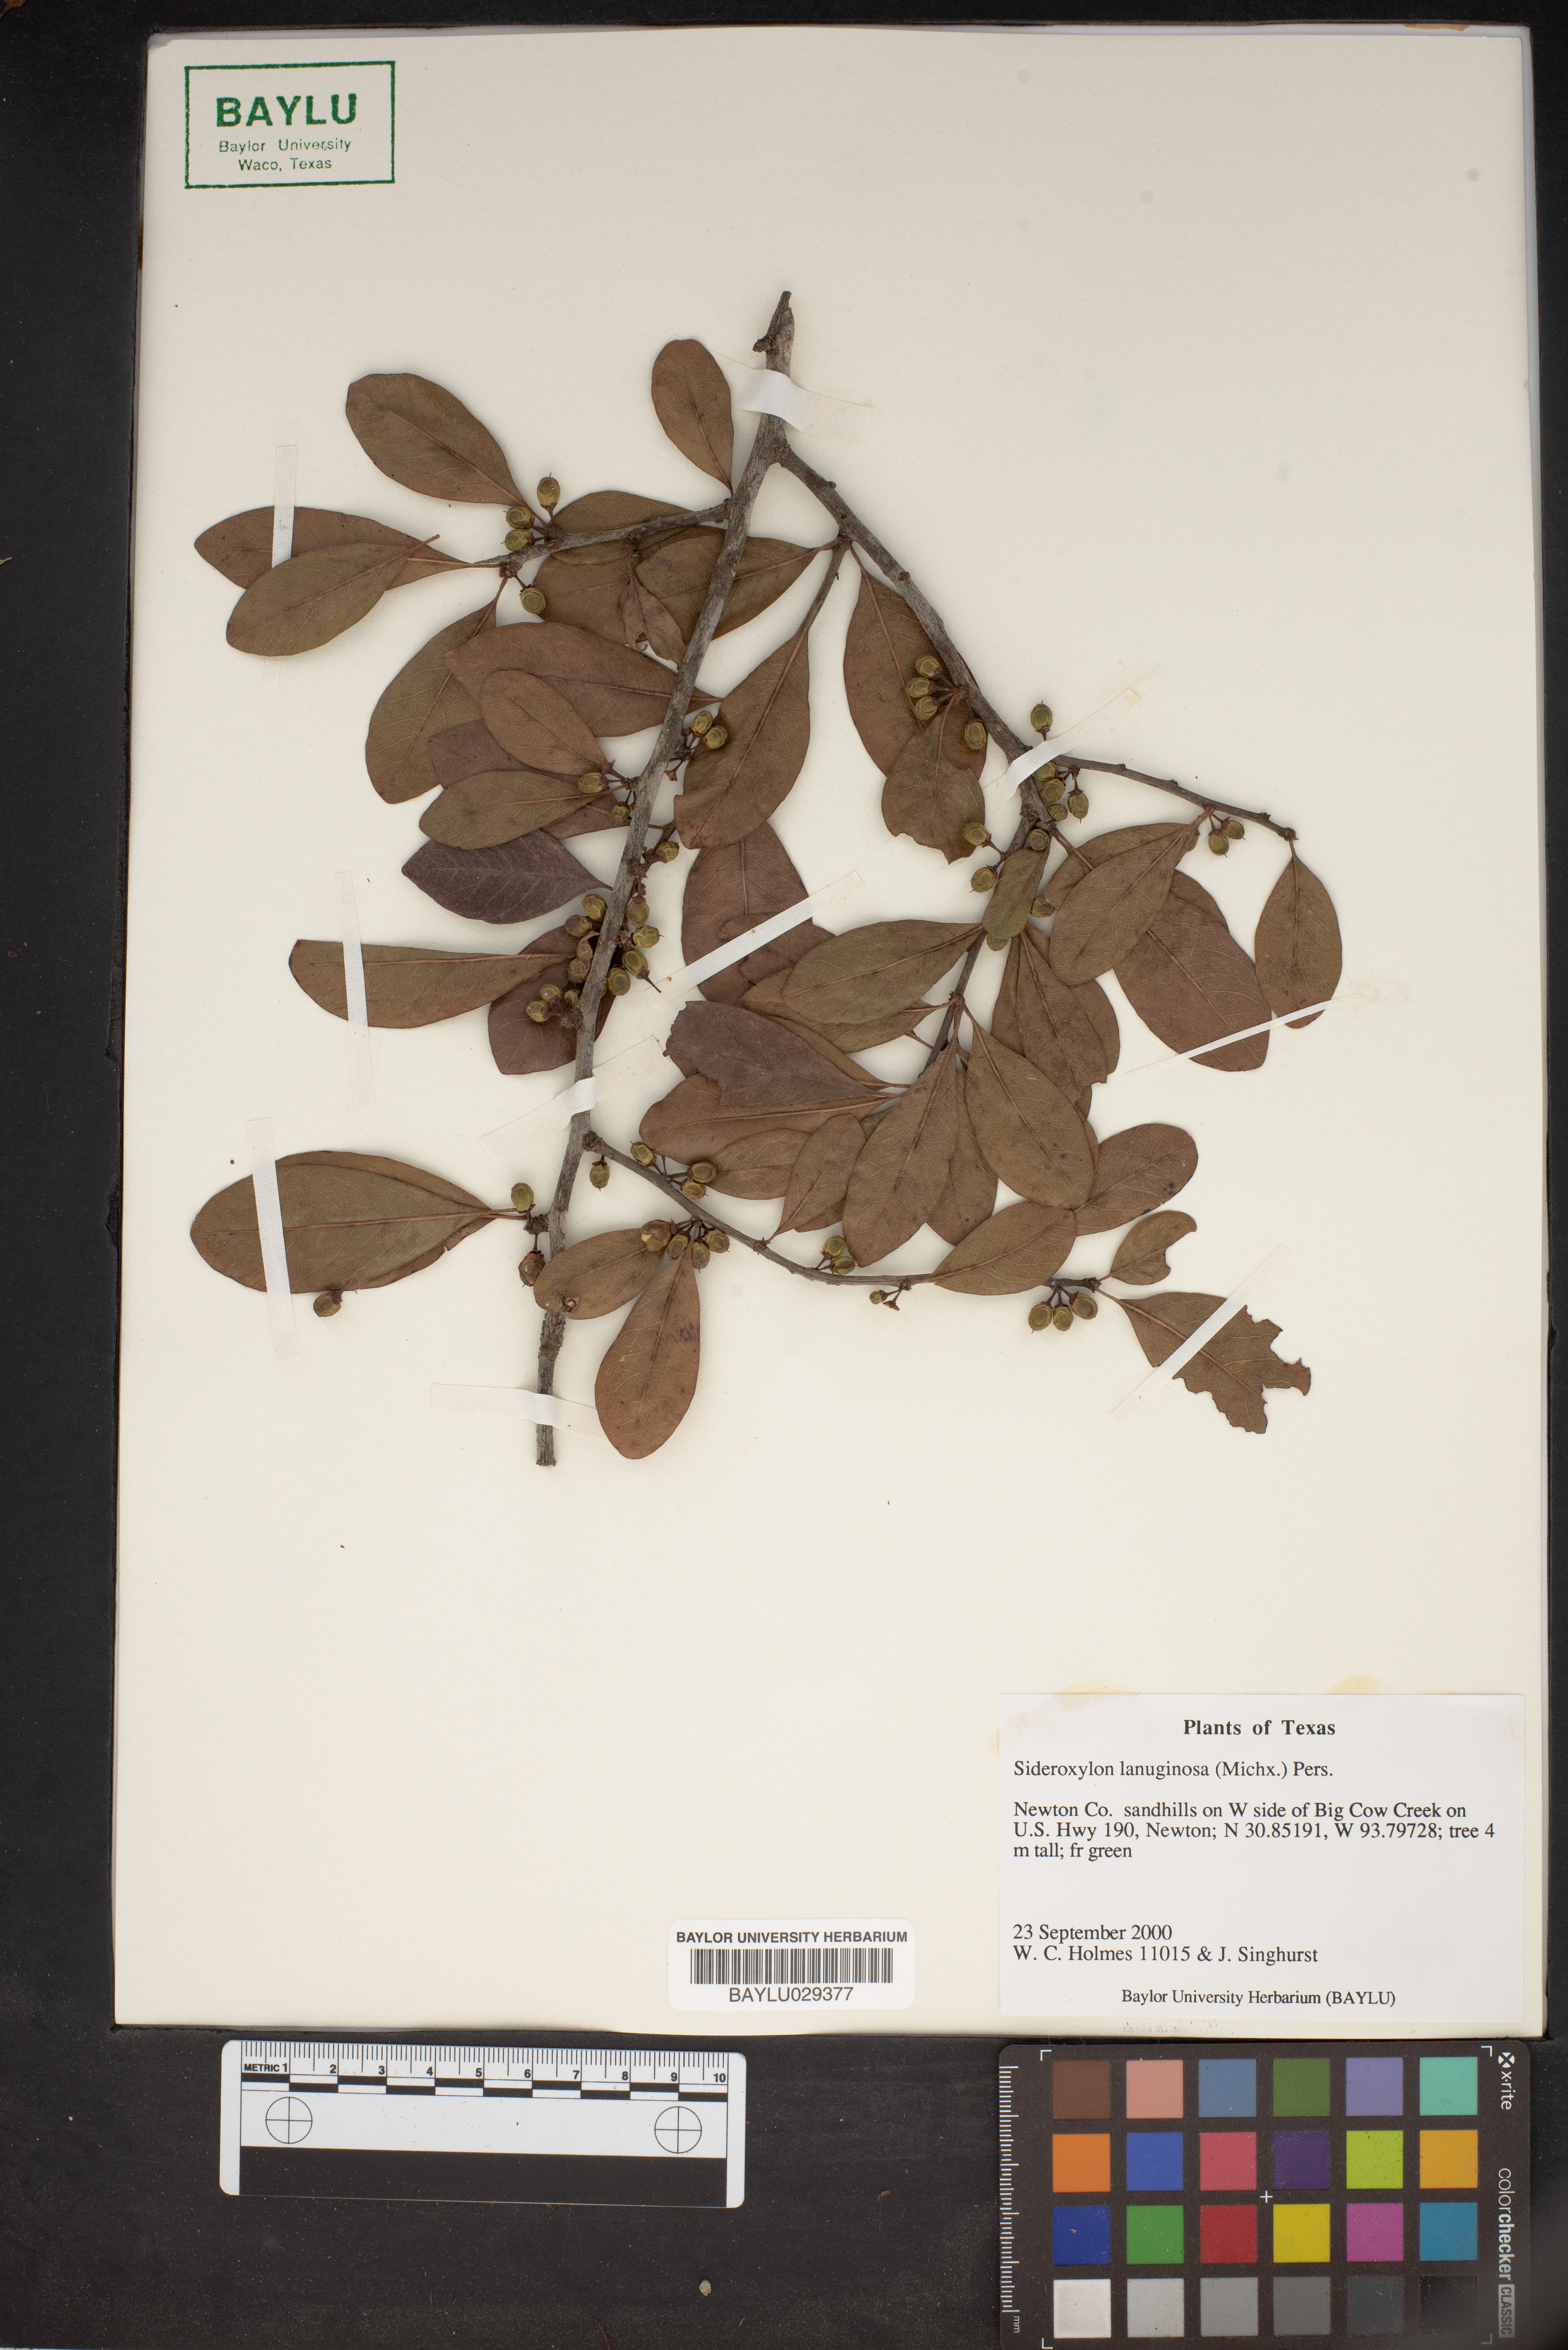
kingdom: Plantae
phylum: Tracheophyta
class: Magnoliopsida
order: Ericales
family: Sapotaceae
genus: Sideroxylon
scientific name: Sideroxylon lanuginosum
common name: Chittamwood
